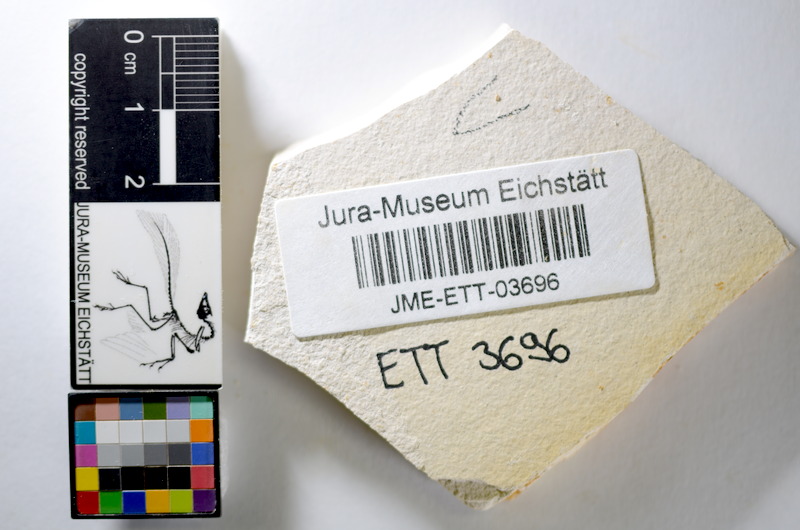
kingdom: Animalia
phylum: Chordata
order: Salmoniformes
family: Orthogonikleithridae
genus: Orthogonikleithrus
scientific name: Orthogonikleithrus hoelli
